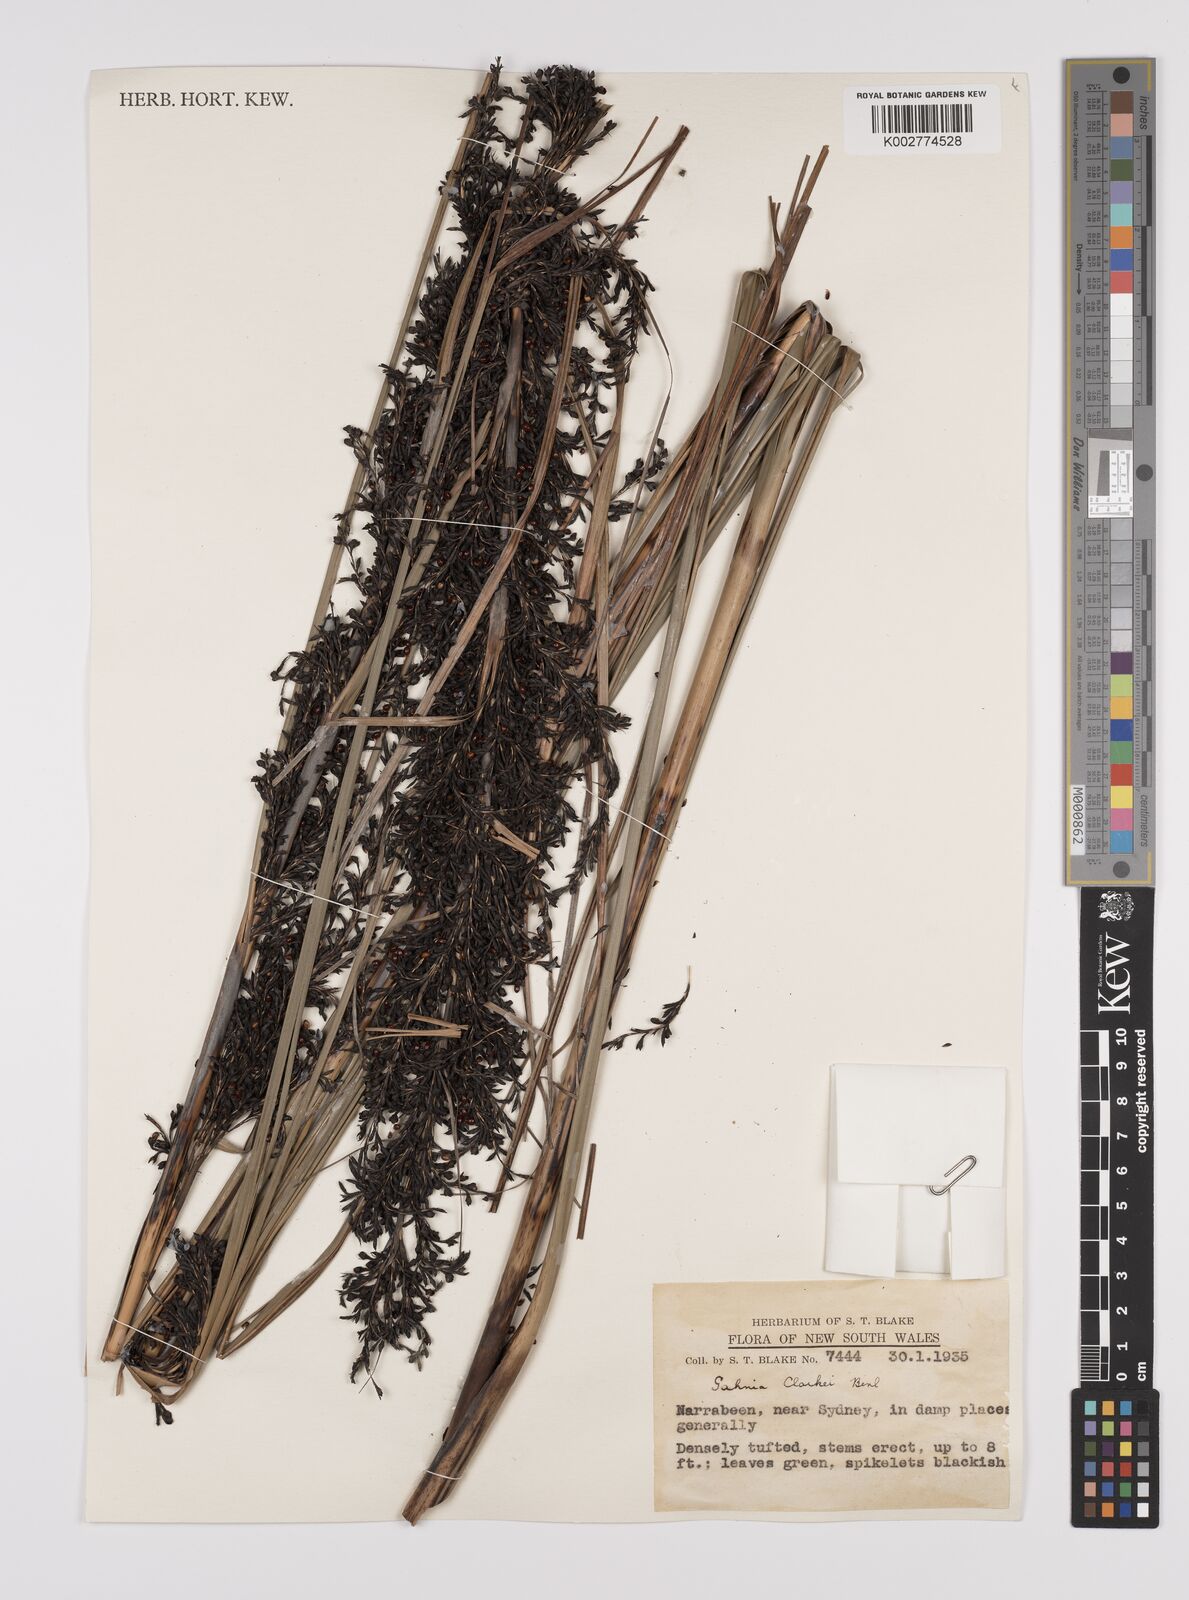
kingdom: Plantae
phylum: Tracheophyta
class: Liliopsida
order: Poales
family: Cyperaceae
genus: Gahnia
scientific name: Gahnia clarkei
